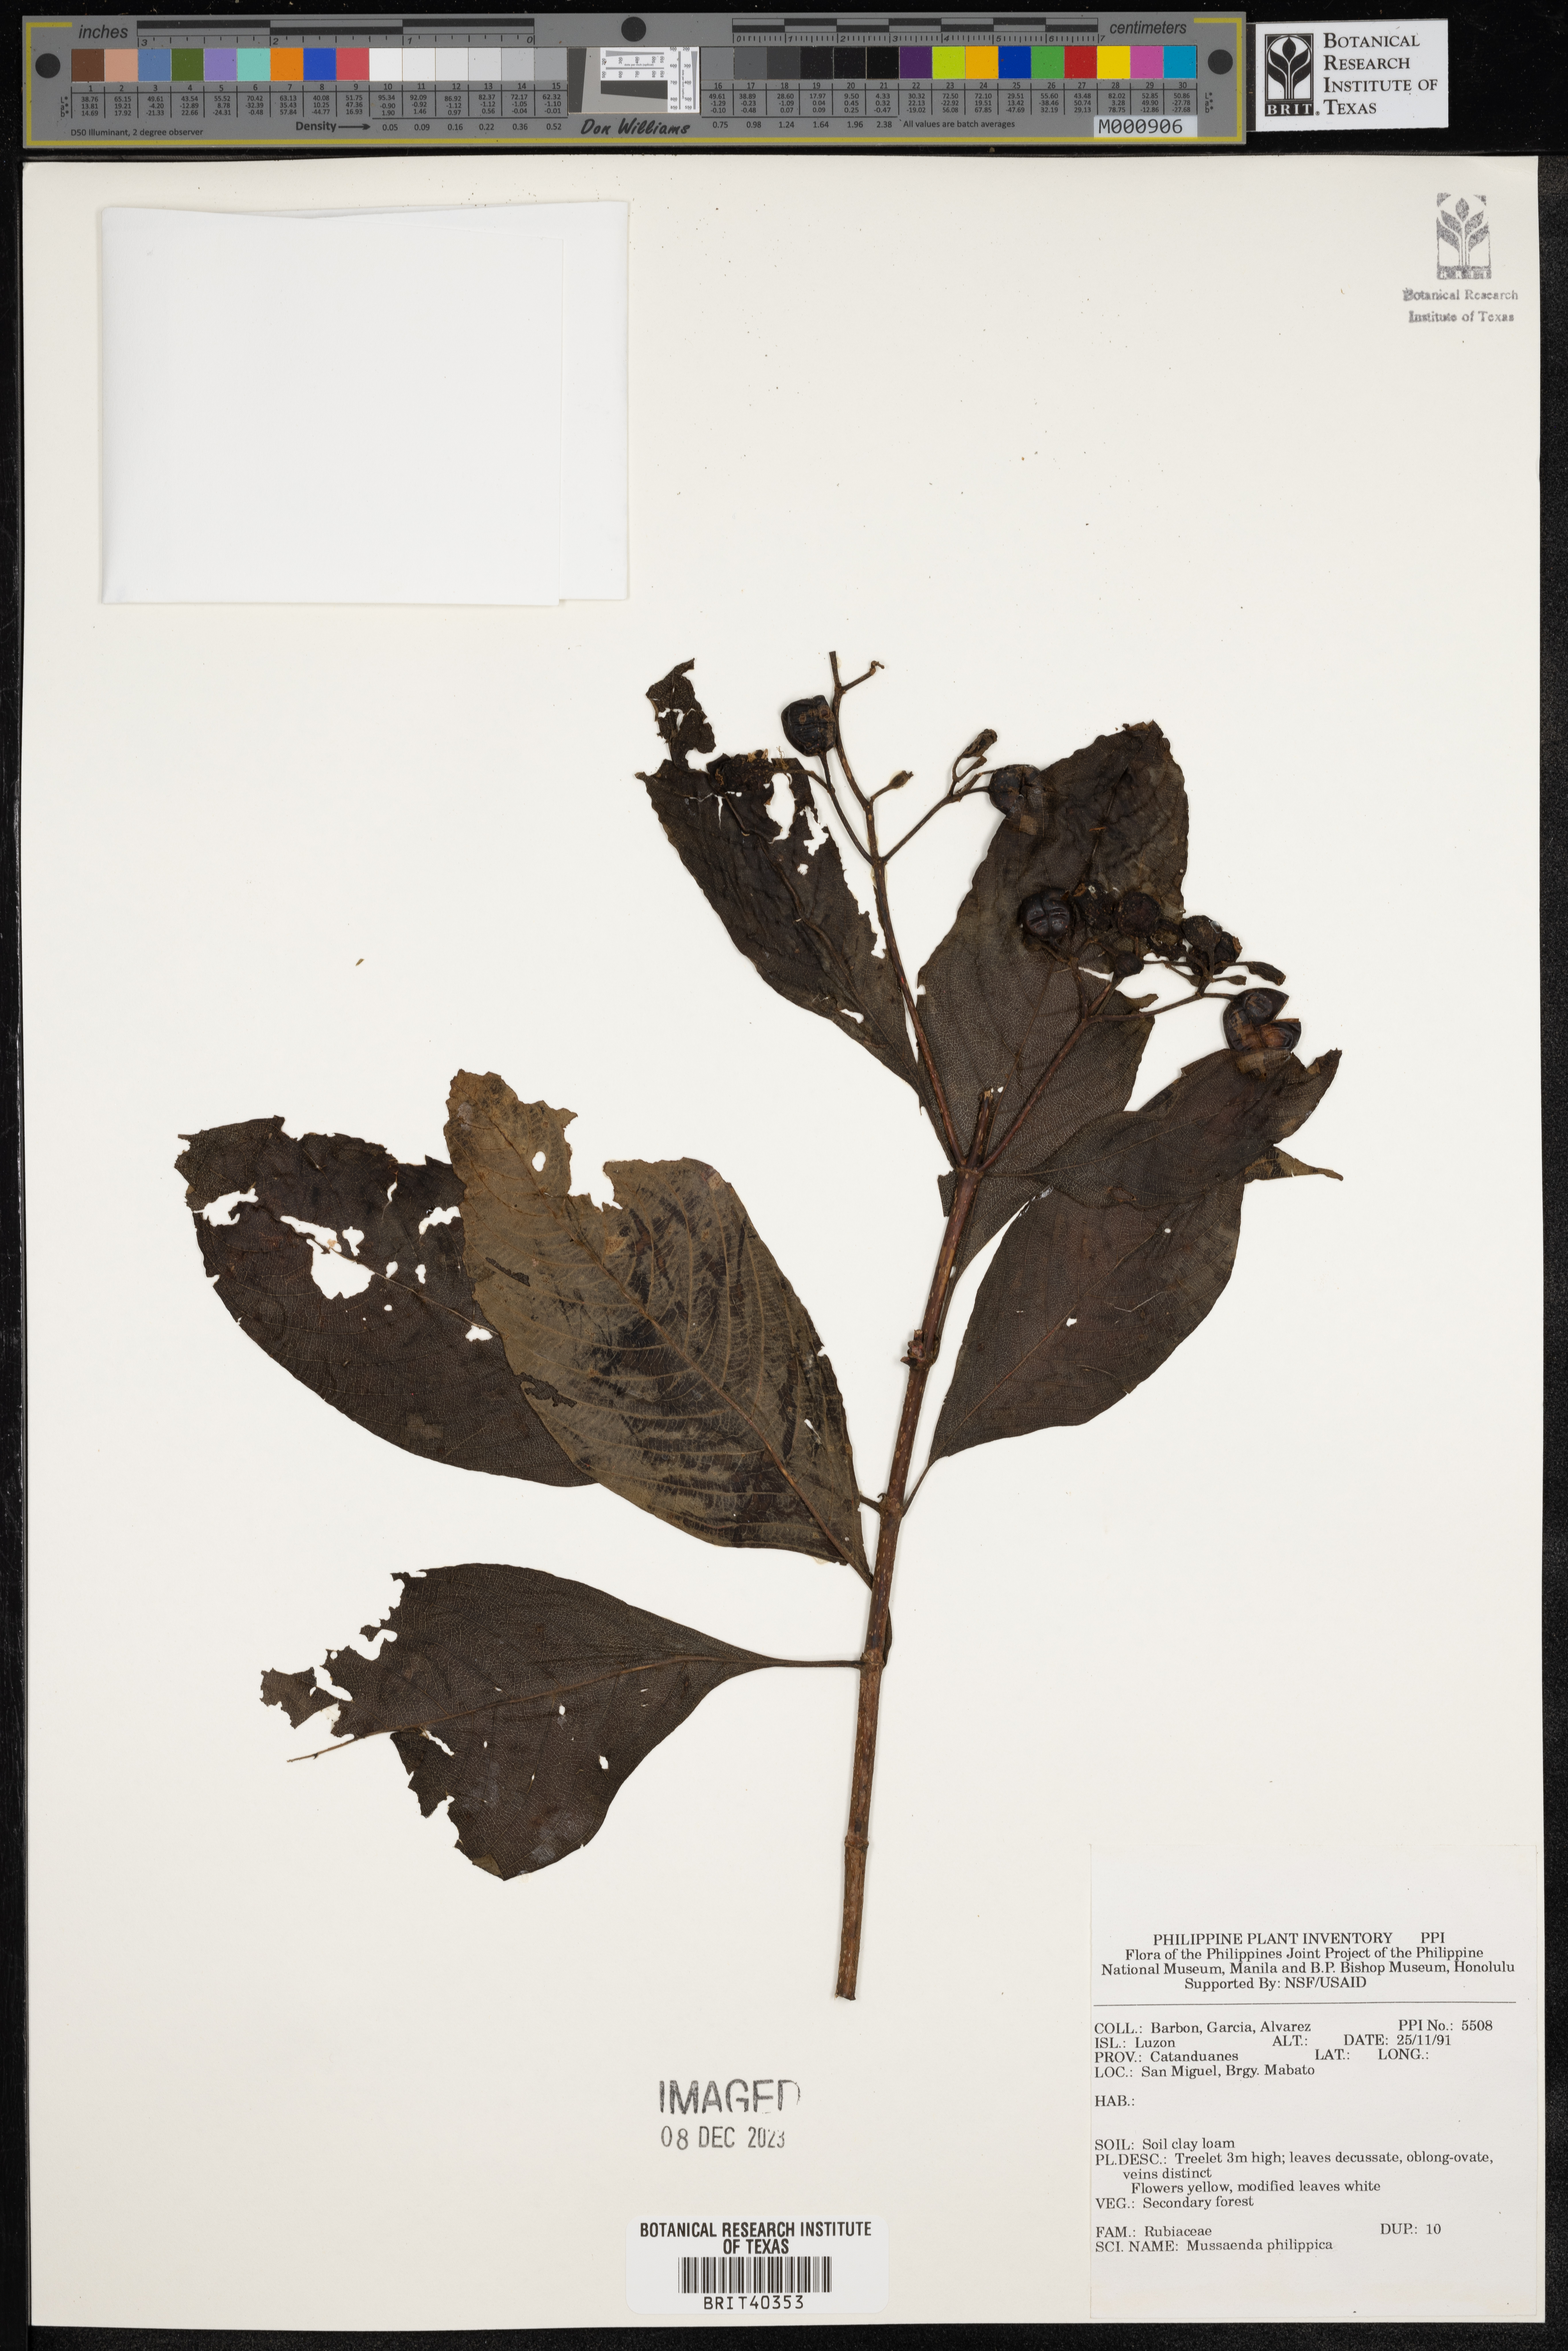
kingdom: Plantae
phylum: Tracheophyta
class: Magnoliopsida
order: Gentianales
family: Rubiaceae
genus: Mussaenda
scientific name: Mussaenda philippica
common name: Philippine mussaenda
